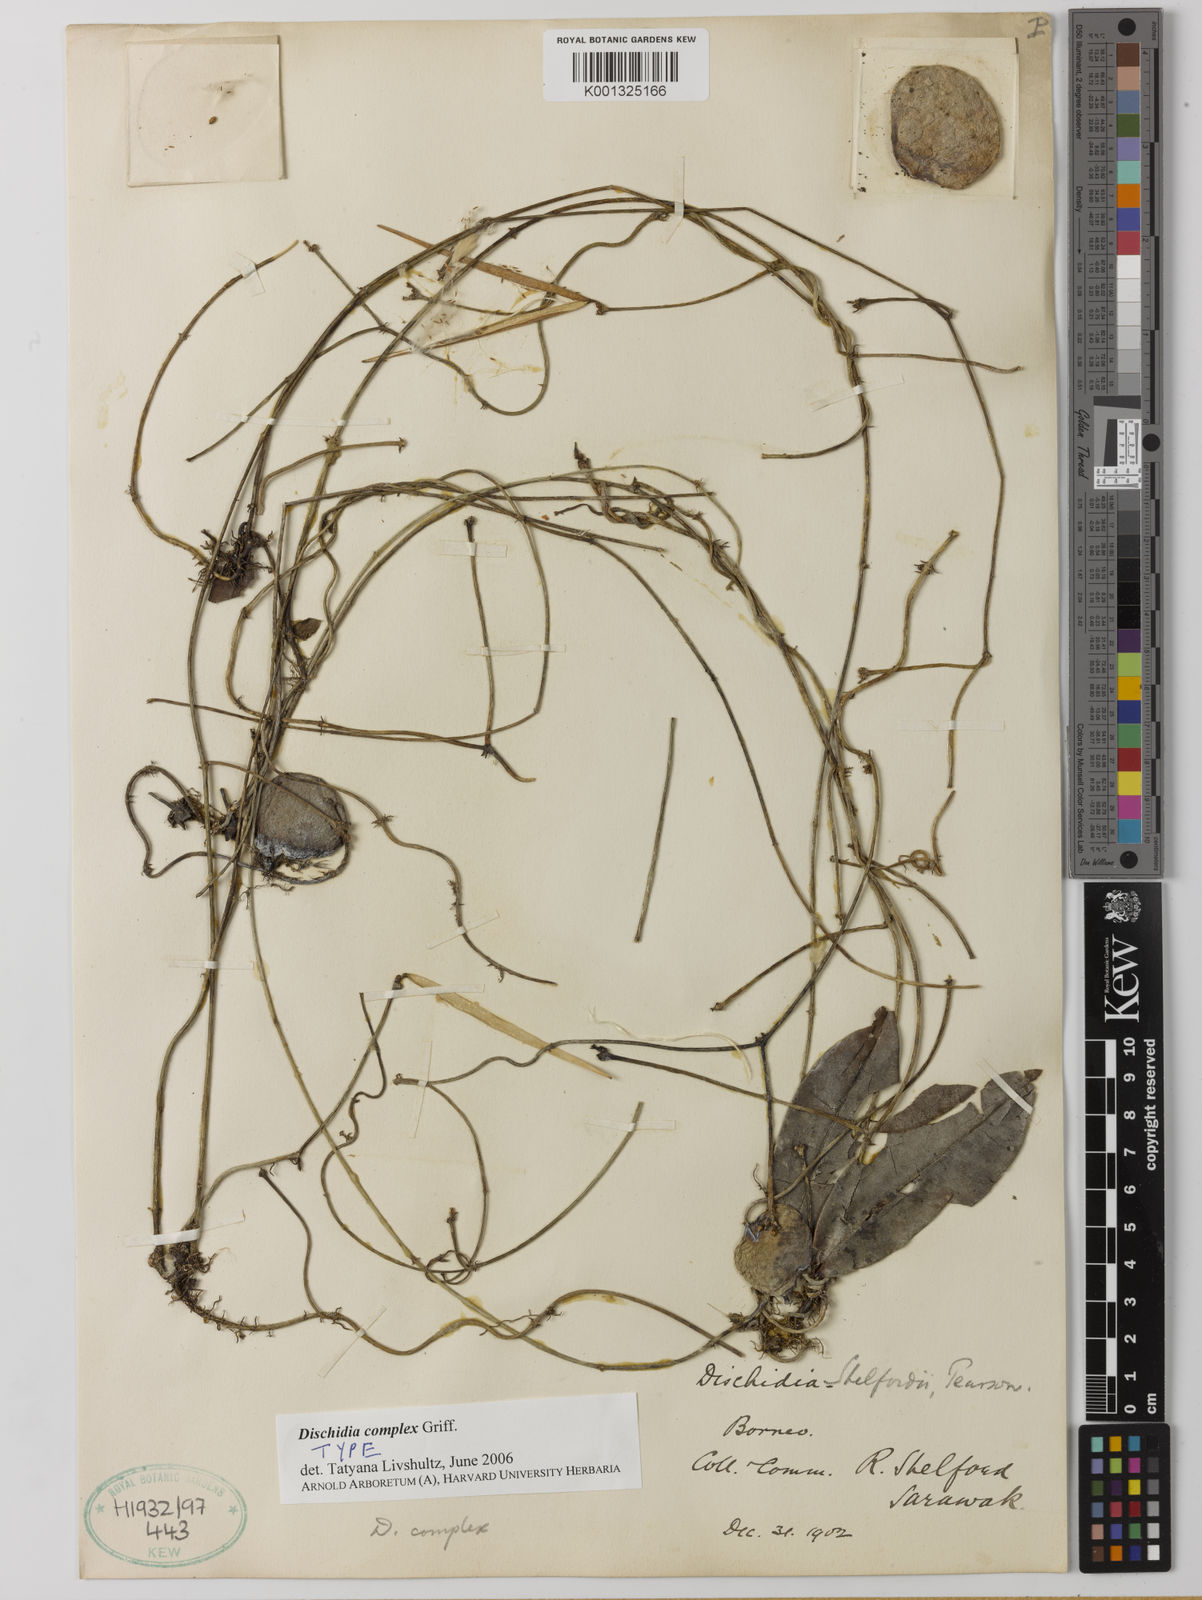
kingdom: Plantae
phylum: Tracheophyta
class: Magnoliopsida
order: Gentianales
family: Apocynaceae
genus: Dischidia
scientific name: Dischidia complex
